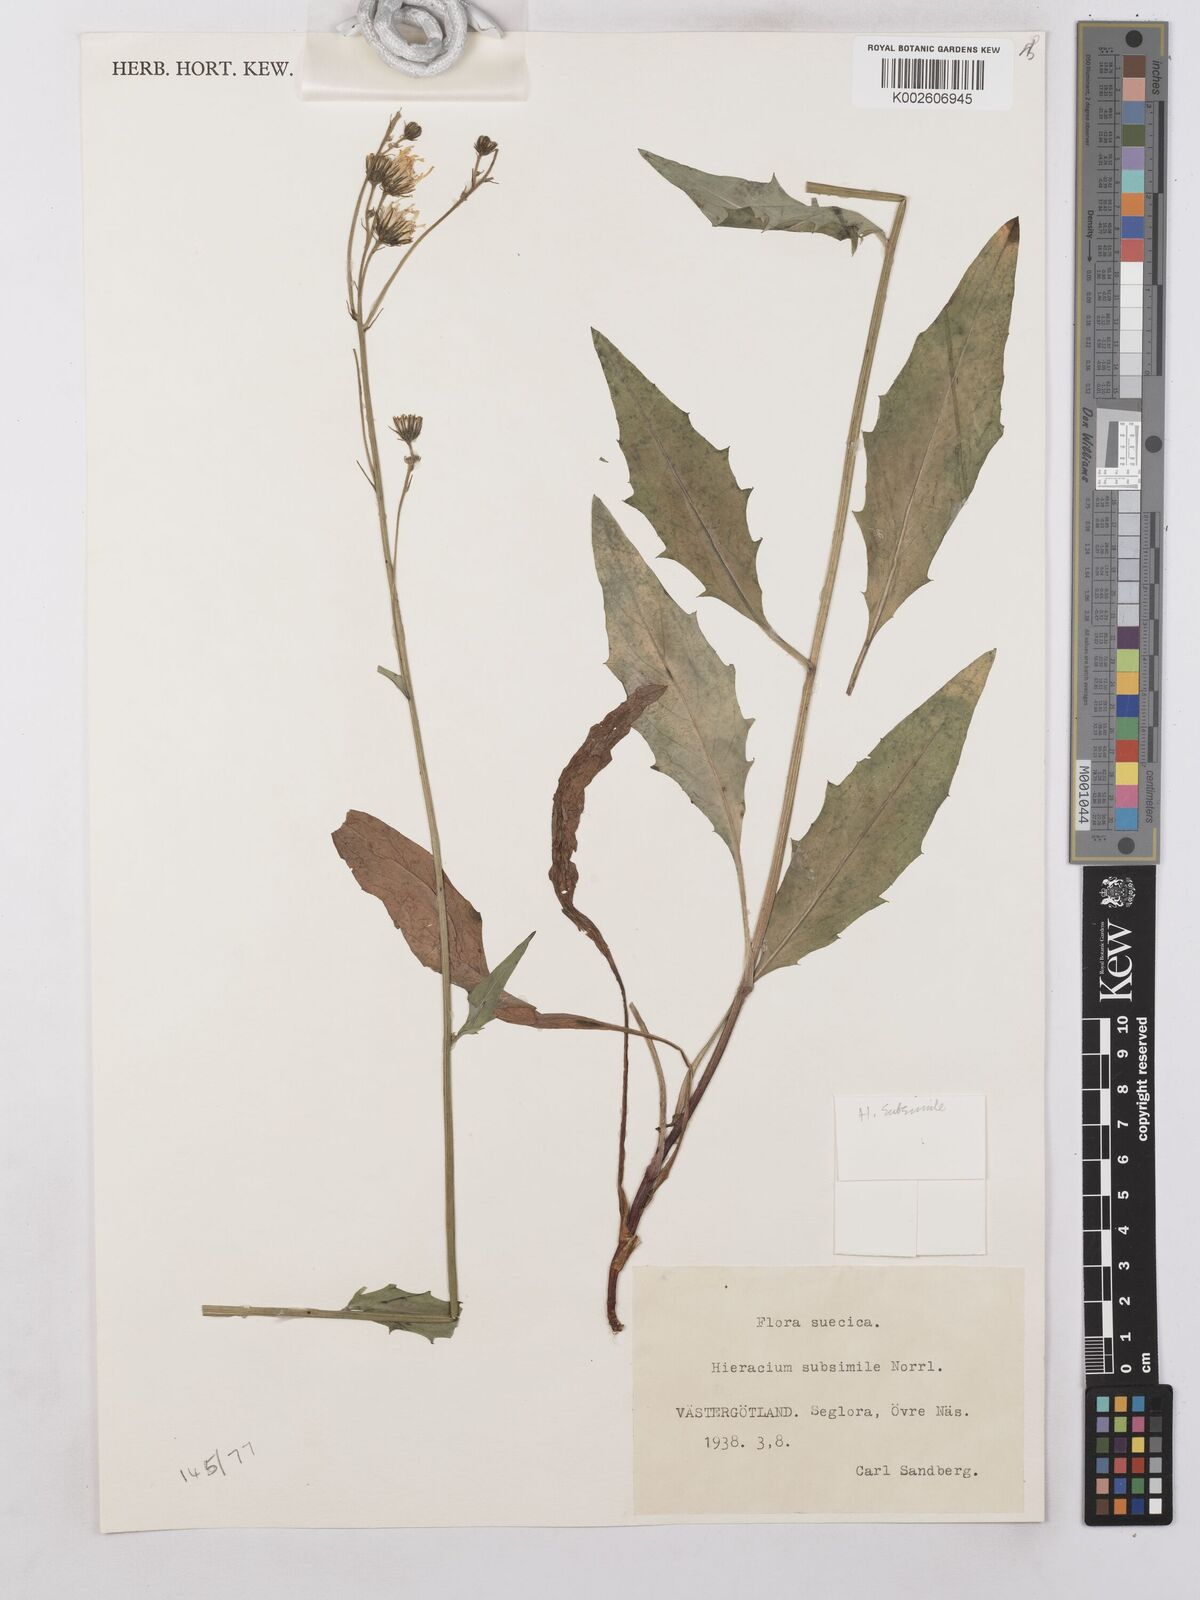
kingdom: Plantae
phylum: Tracheophyta
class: Magnoliopsida
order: Asterales
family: Asteraceae
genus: Hieracium
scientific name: Hieracium levicaule
